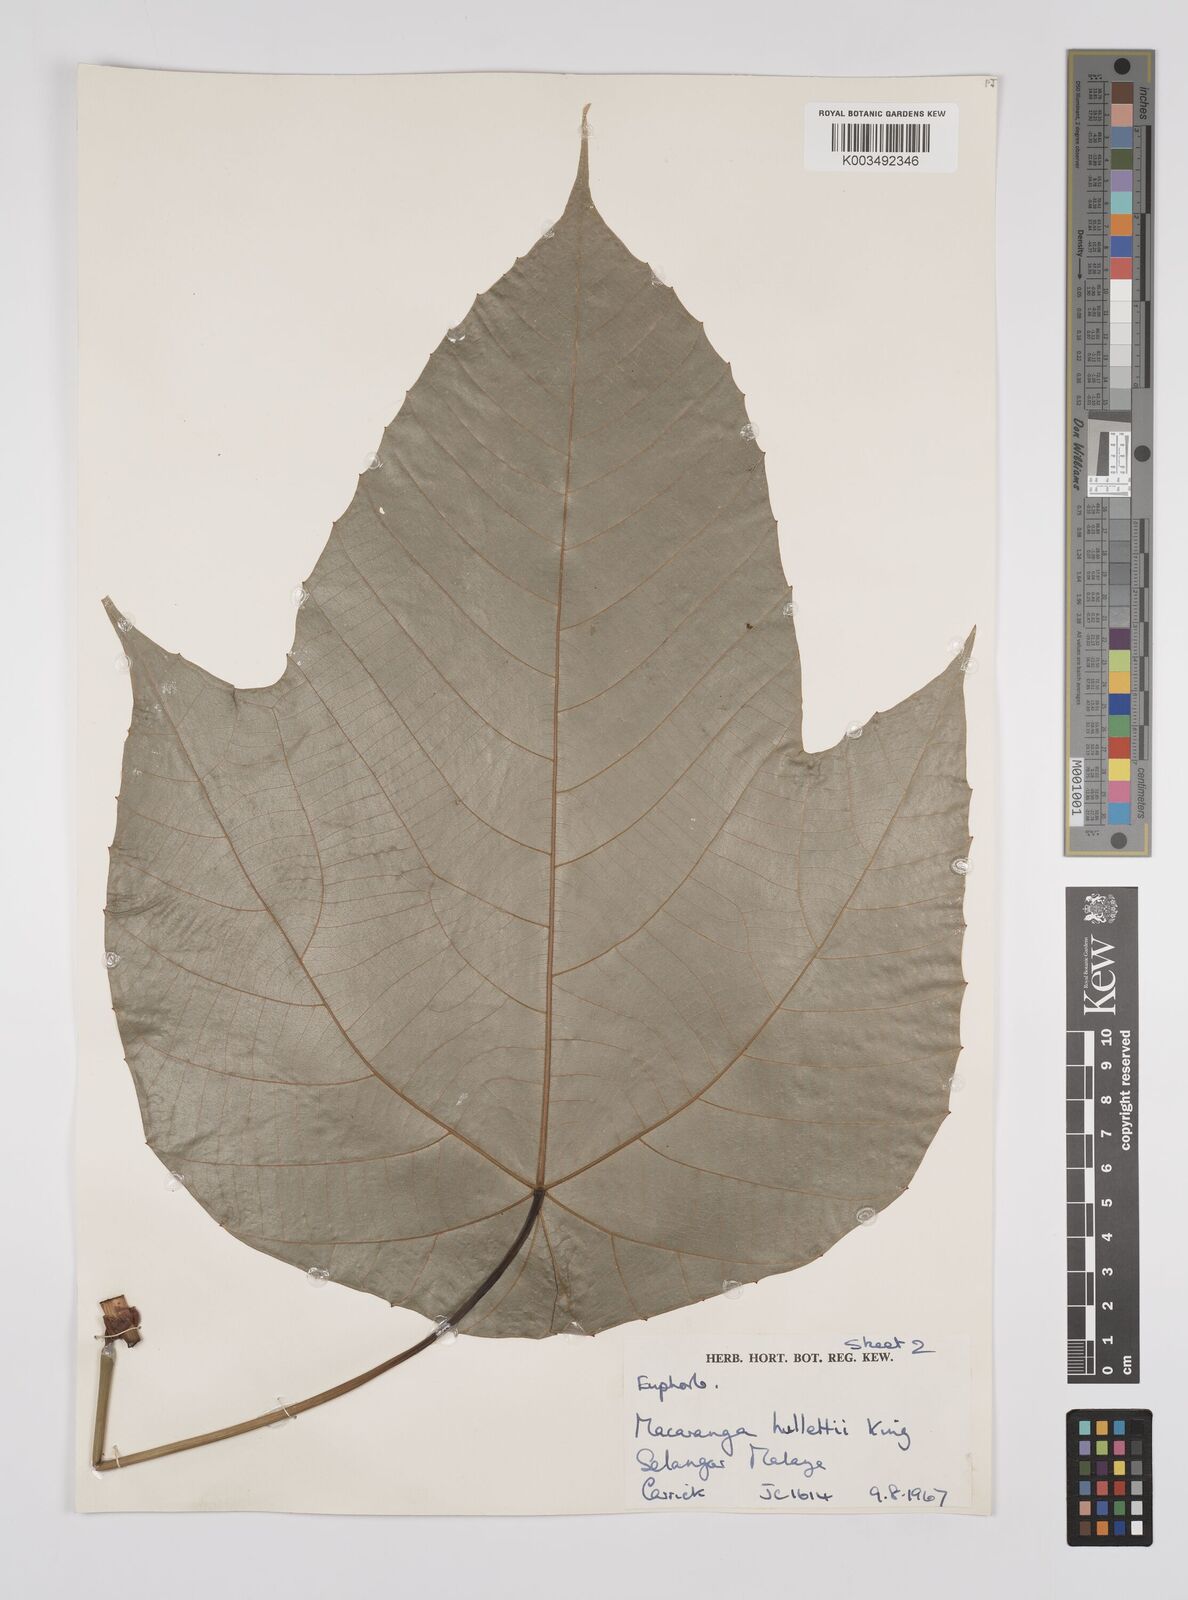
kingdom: Plantae
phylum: Tracheophyta
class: Magnoliopsida
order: Malpighiales
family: Euphorbiaceae
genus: Macaranga
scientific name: Macaranga hullettii
